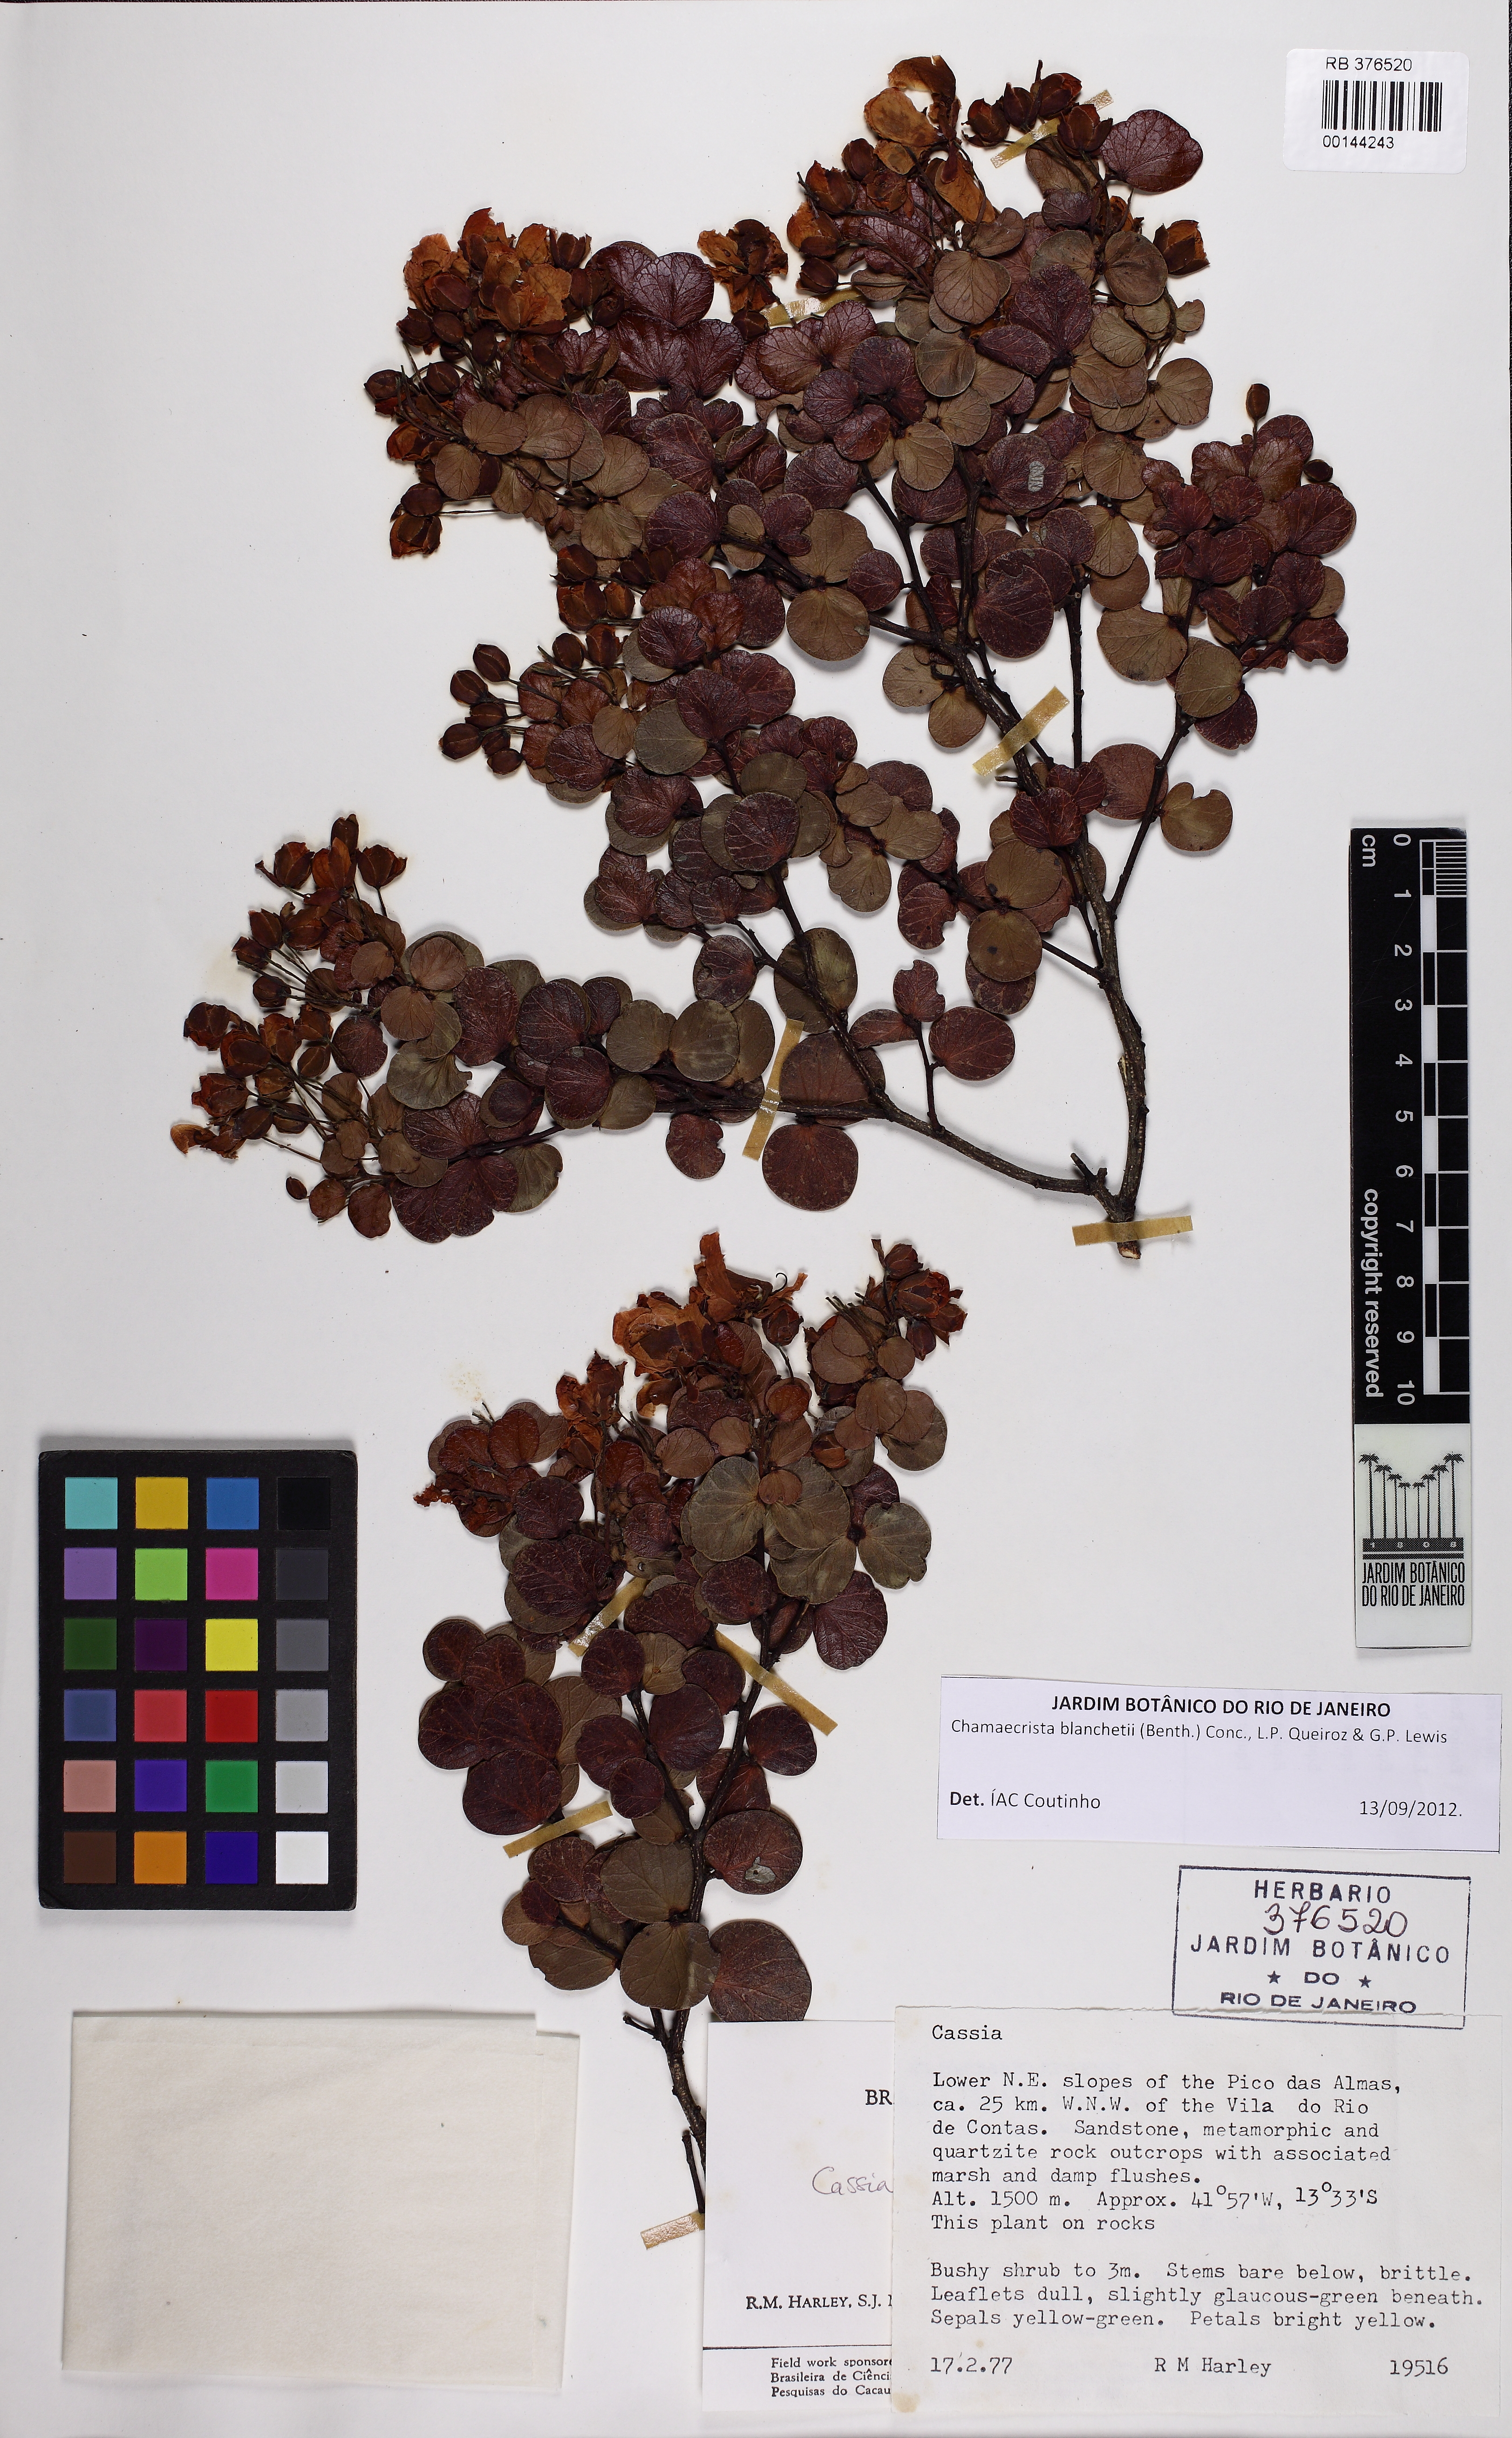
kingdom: Plantae
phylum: Tracheophyta
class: Magnoliopsida
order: Fabales
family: Fabaceae
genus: Chamaecrista
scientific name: Chamaecrista blanchetii
